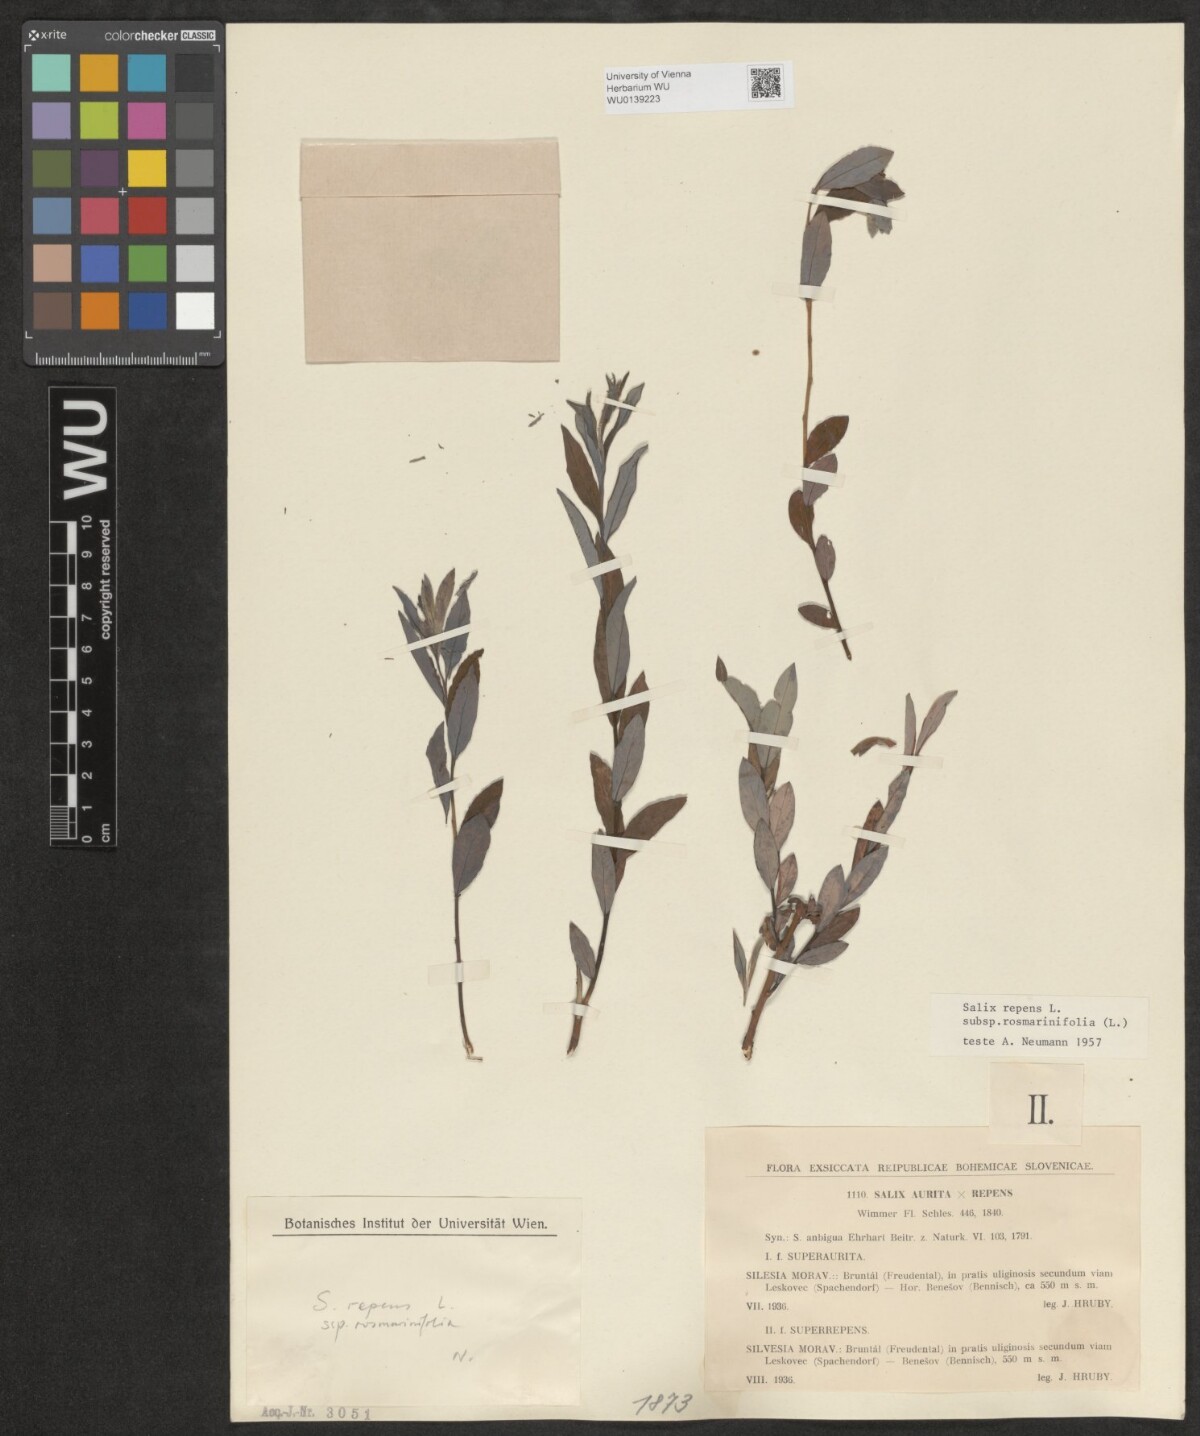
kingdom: Plantae
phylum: Tracheophyta
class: Magnoliopsida
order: Malpighiales
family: Salicaceae
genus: Salix
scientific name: Salix repens
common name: Creeping willow
